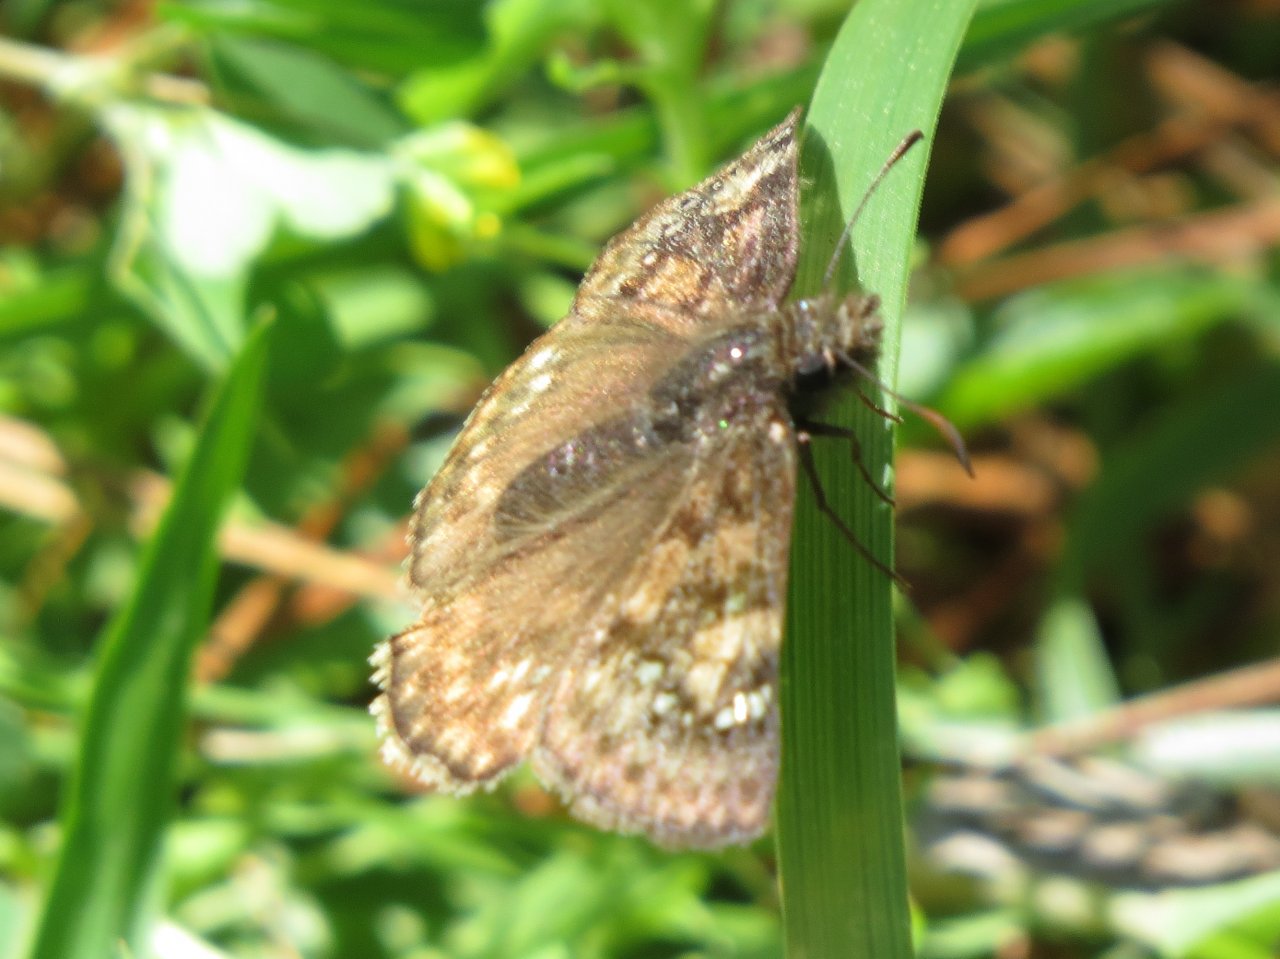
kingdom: Animalia
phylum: Arthropoda
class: Insecta
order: Lepidoptera
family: Hesperiidae
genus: Gesta
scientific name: Gesta
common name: Juvenal's Duskywing
